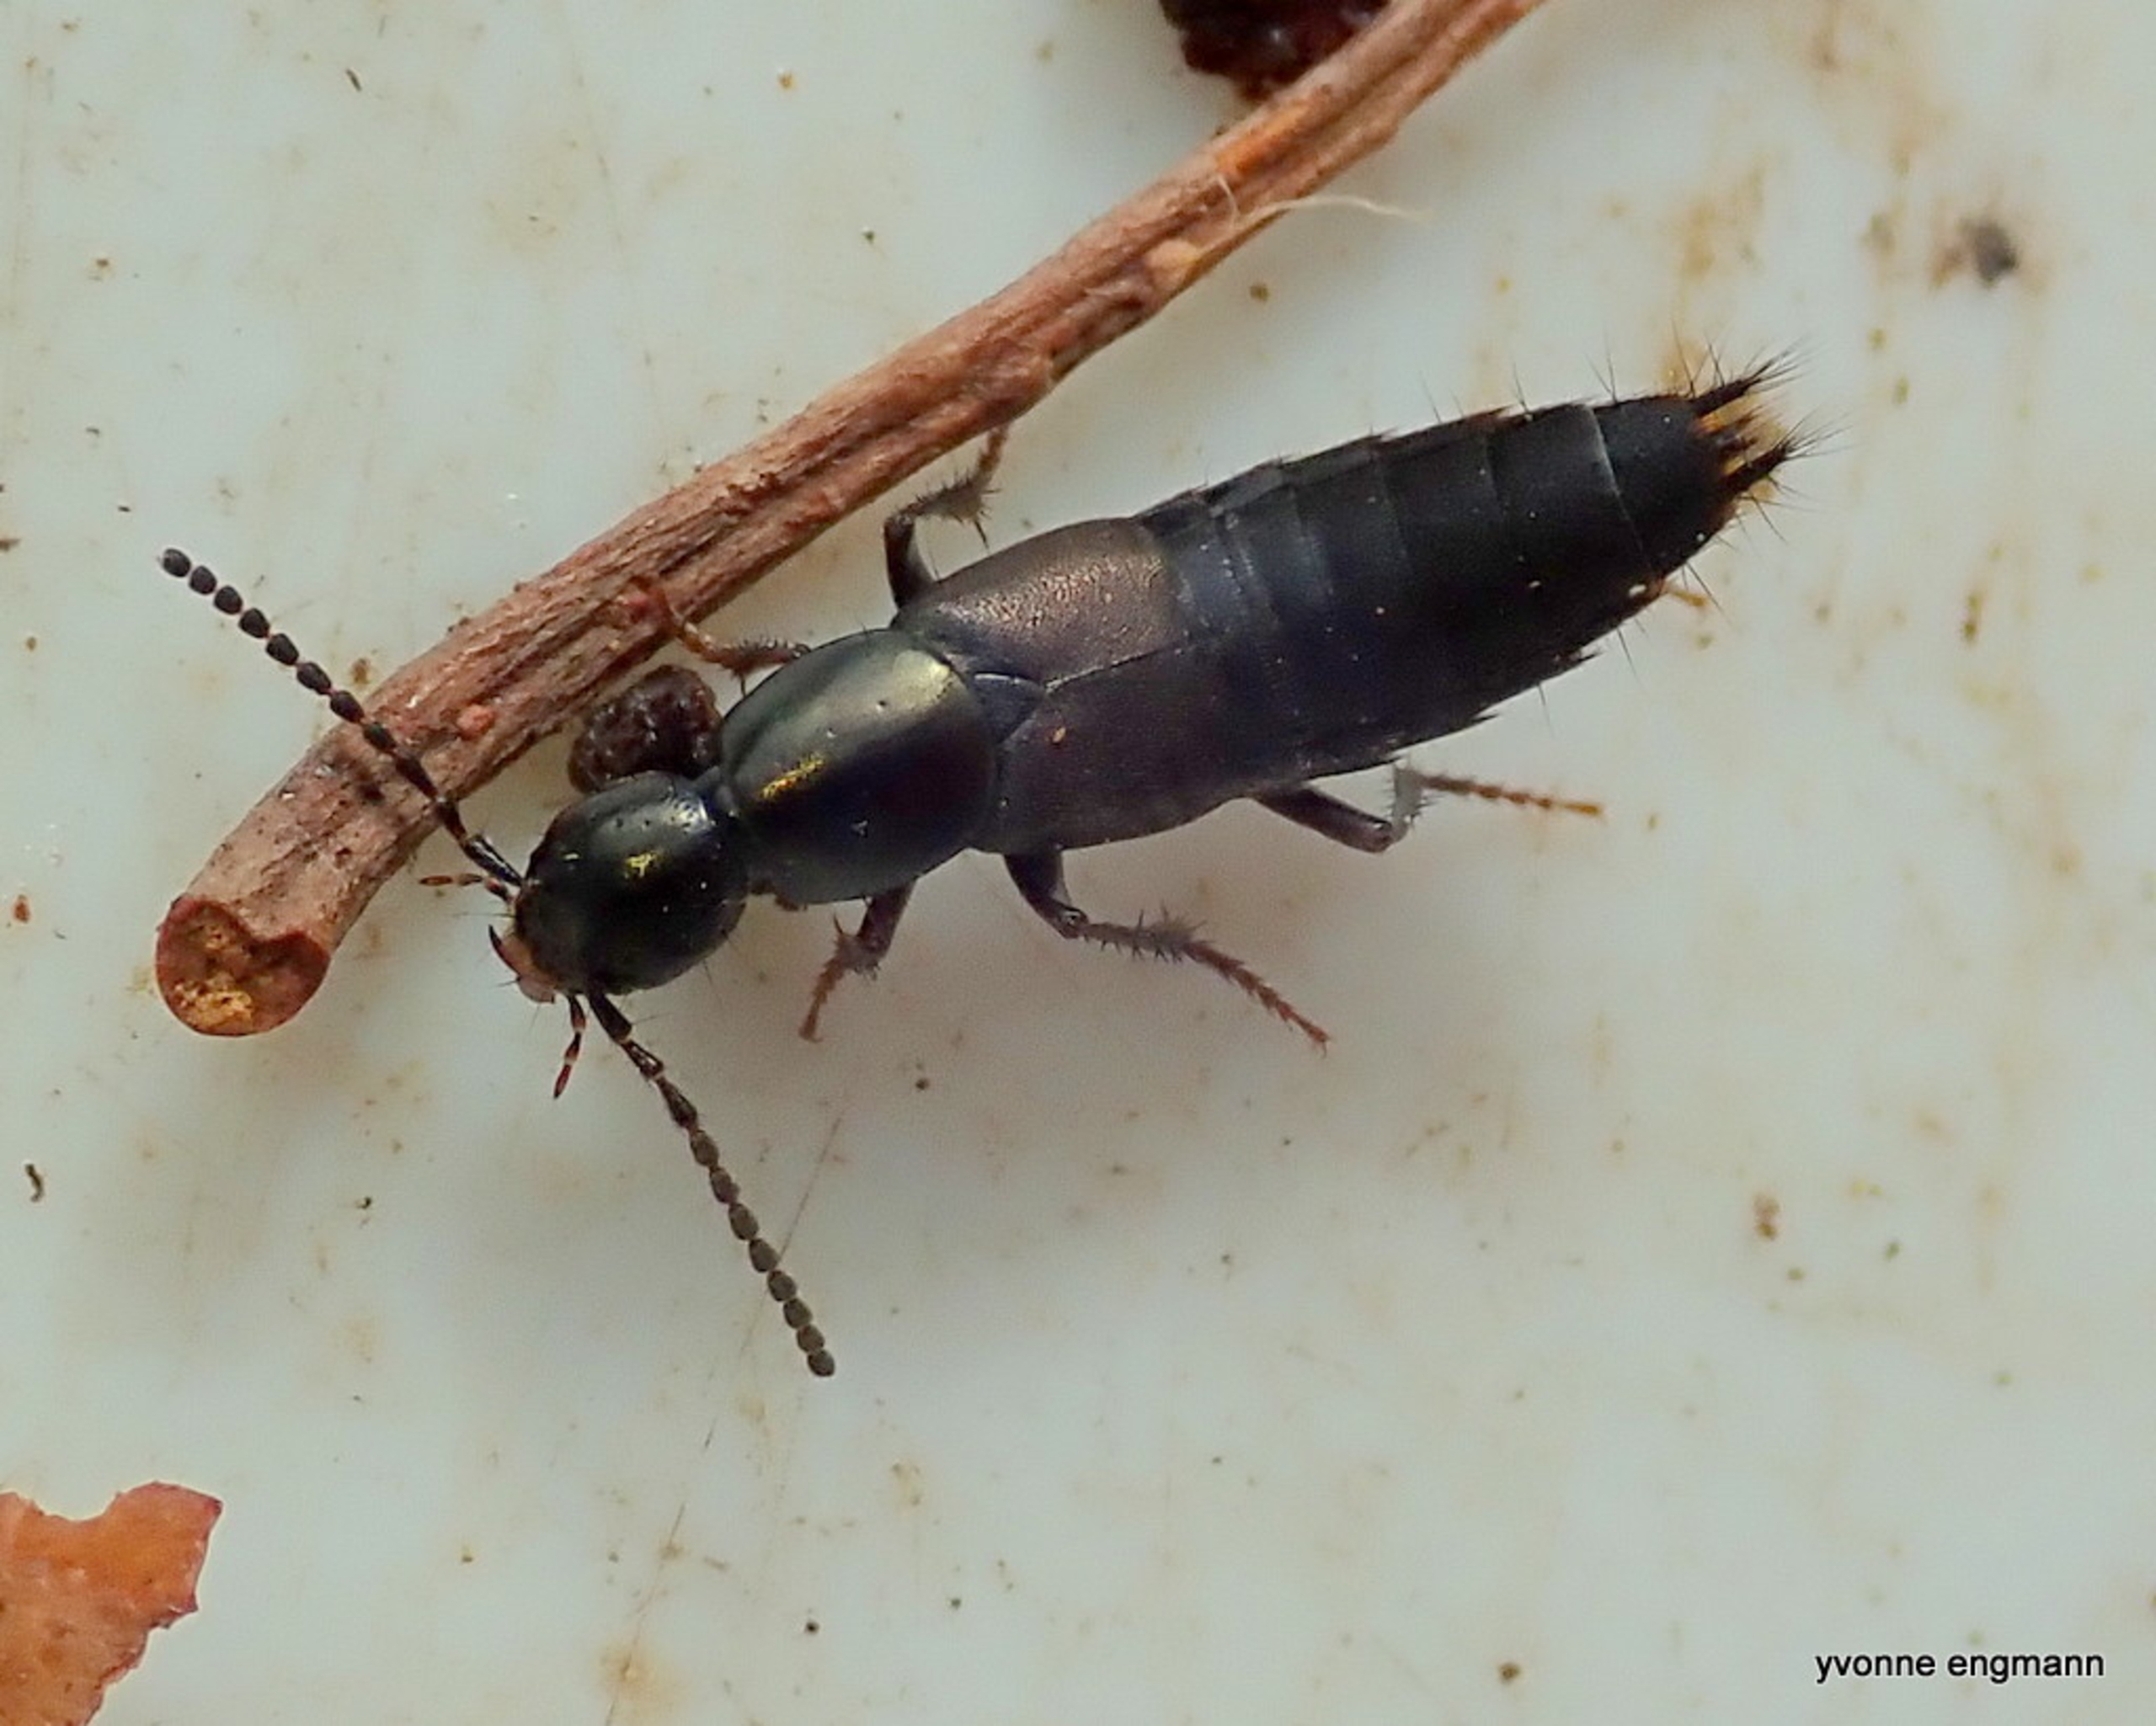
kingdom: Animalia
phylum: Arthropoda
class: Insecta
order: Coleoptera
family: Staphylinidae
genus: Philonthus
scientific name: Philonthus decorus
